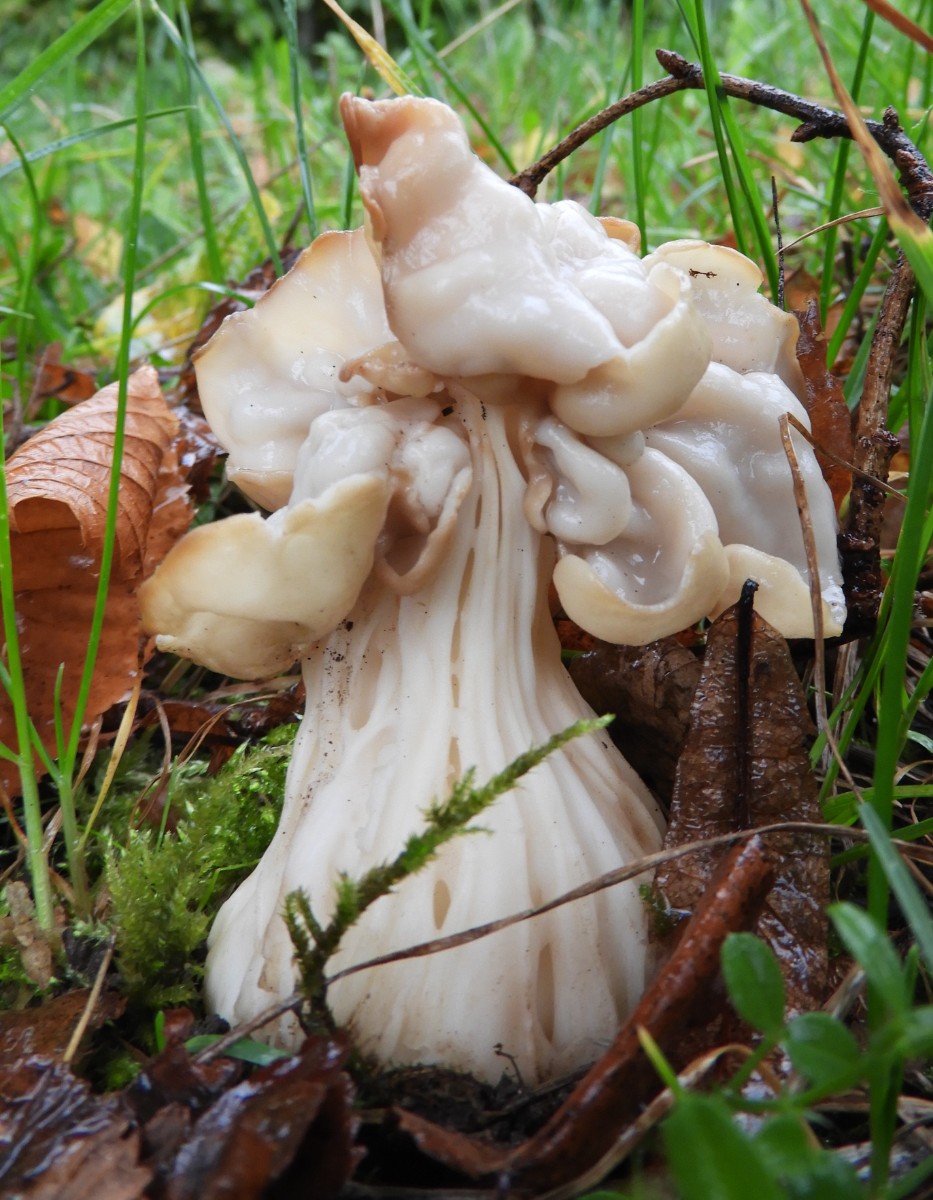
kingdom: Fungi
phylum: Ascomycota
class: Pezizomycetes
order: Pezizales
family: Helvellaceae
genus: Helvella
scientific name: Helvella crispa
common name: kruset foldhat
